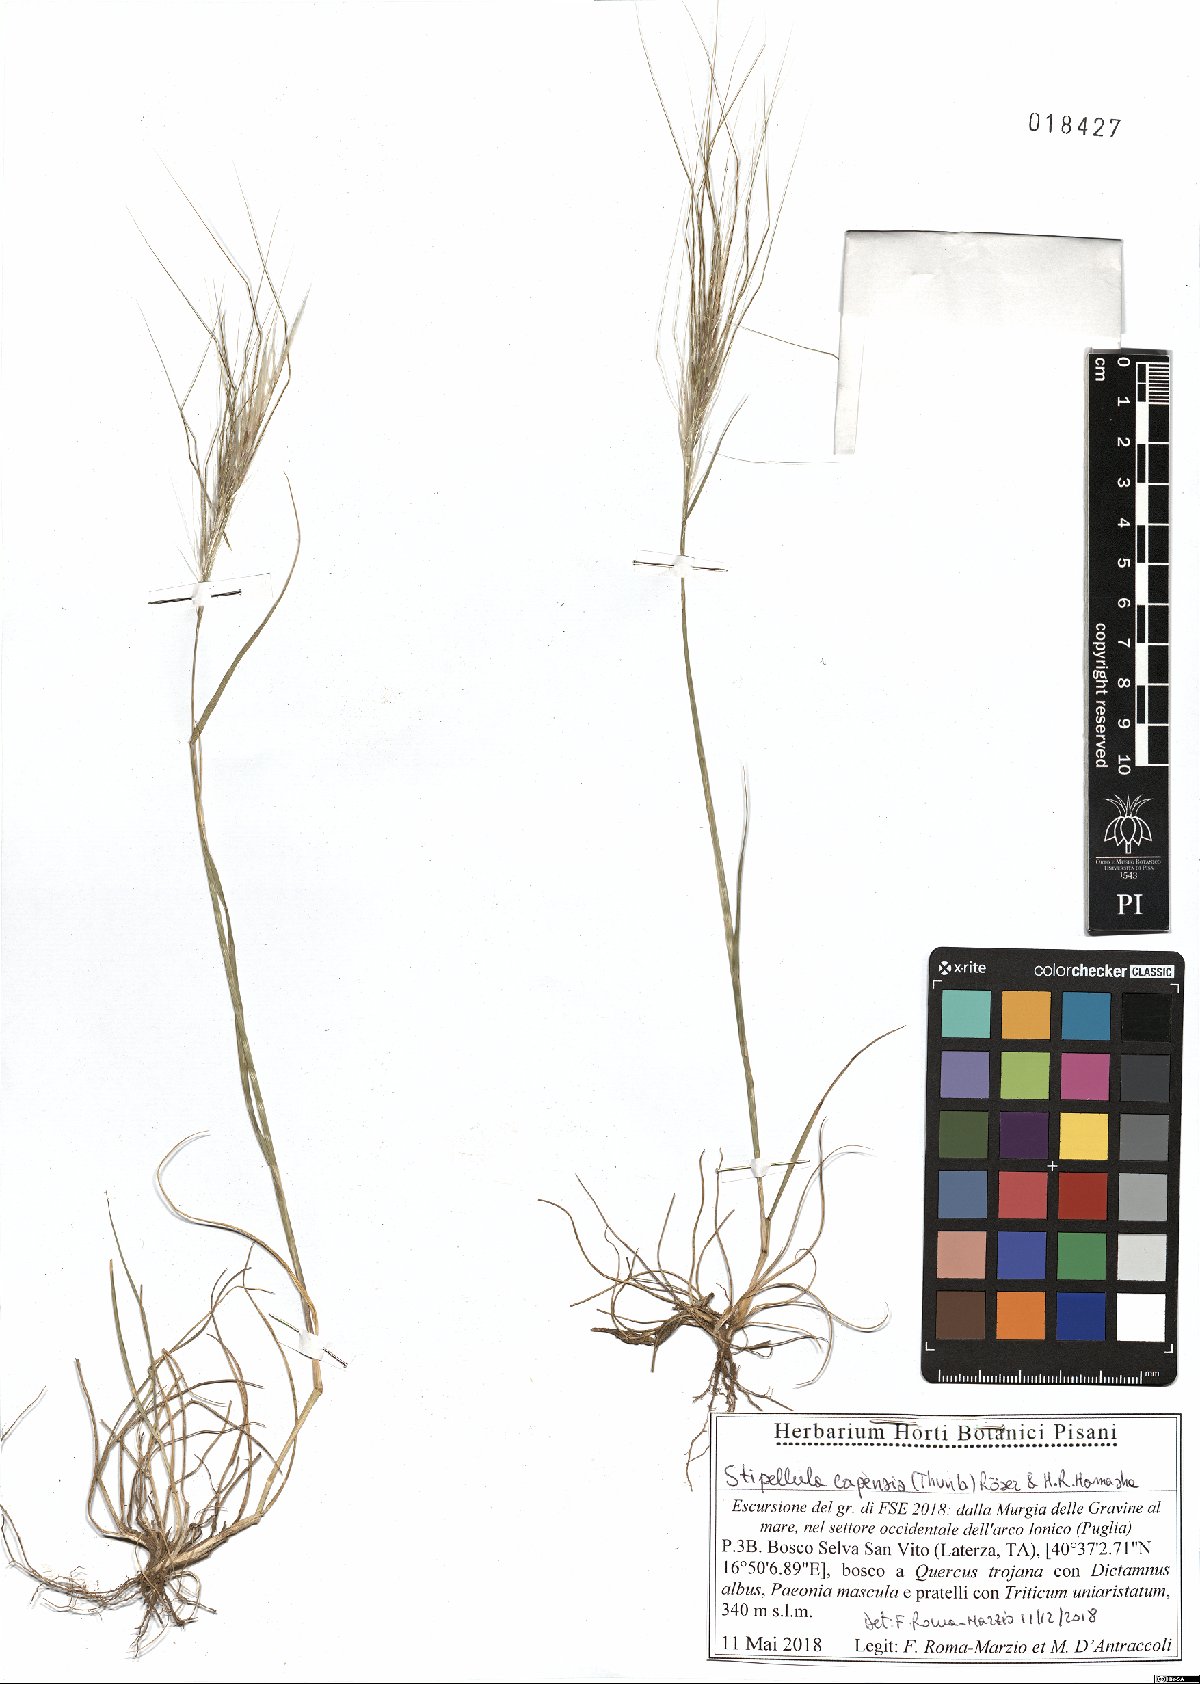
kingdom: Plantae
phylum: Tracheophyta
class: Liliopsida
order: Poales
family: Poaceae
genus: Stipellula
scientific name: Stipellula capensis
